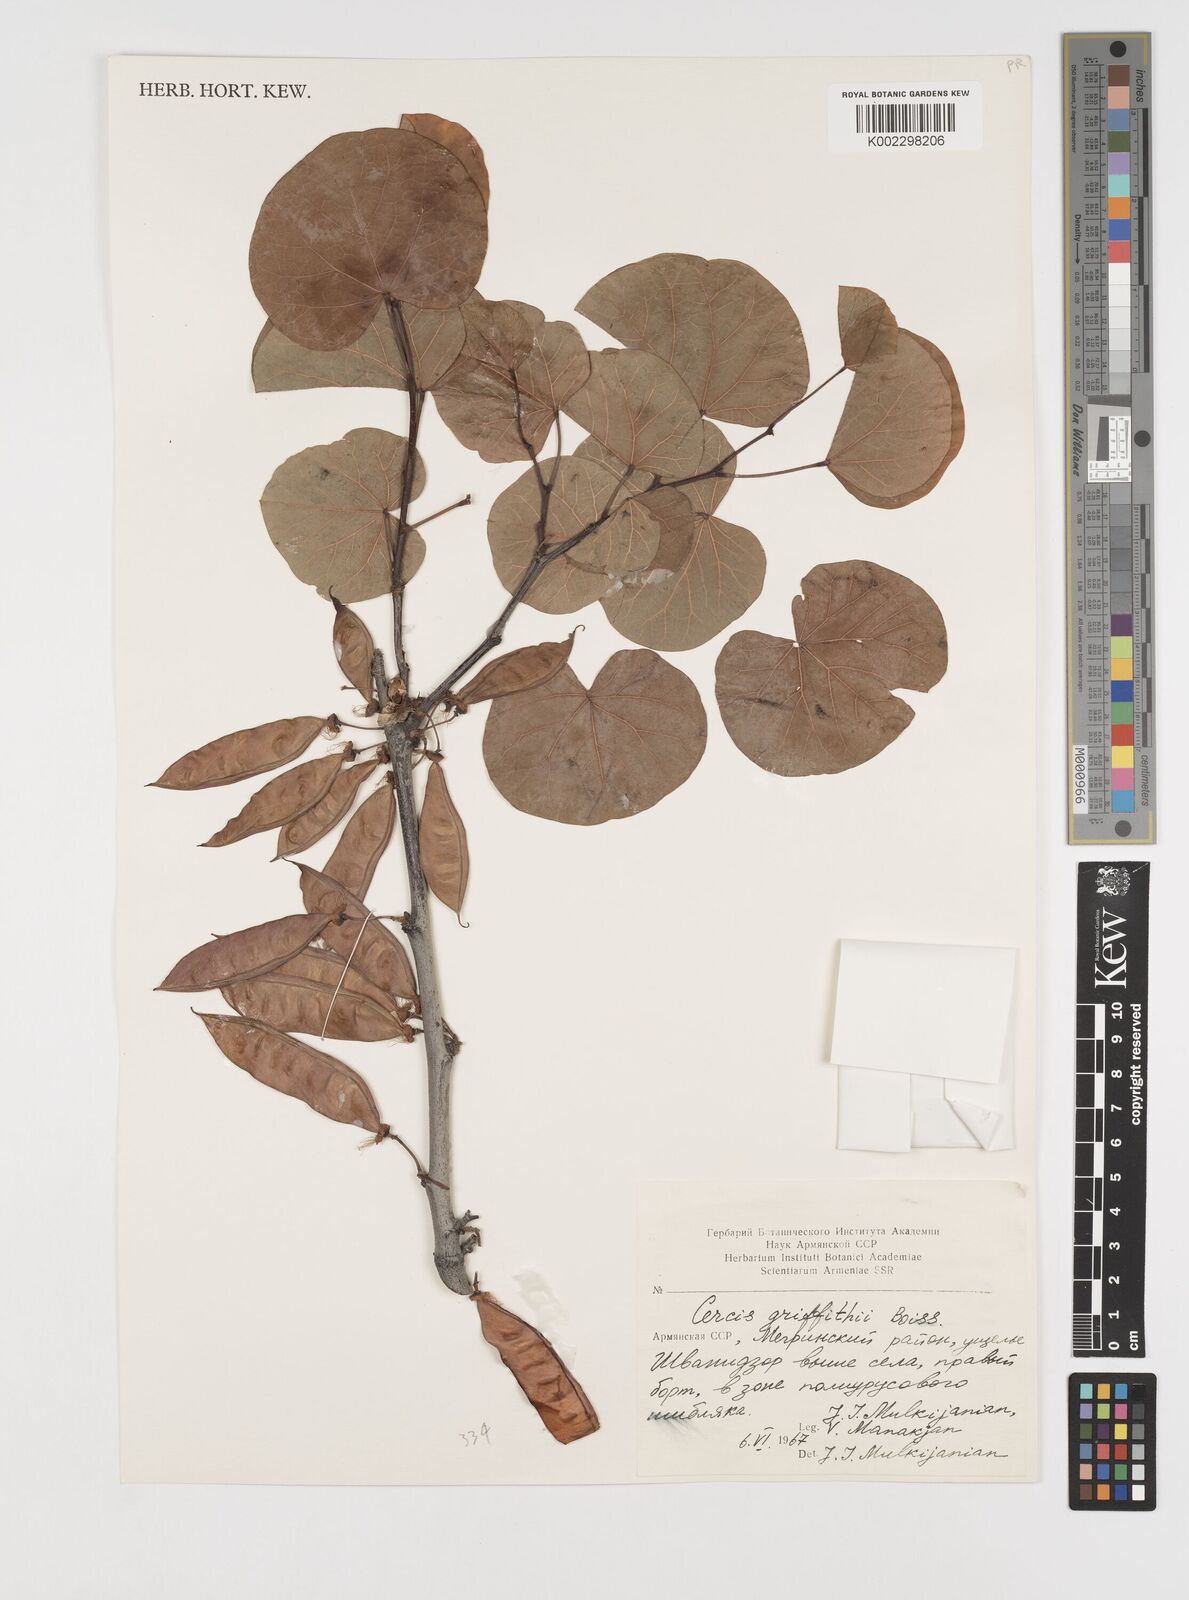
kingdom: Plantae
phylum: Tracheophyta
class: Magnoliopsida
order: Fabales
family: Fabaceae
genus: Cercis
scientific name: Cercis griffithii
